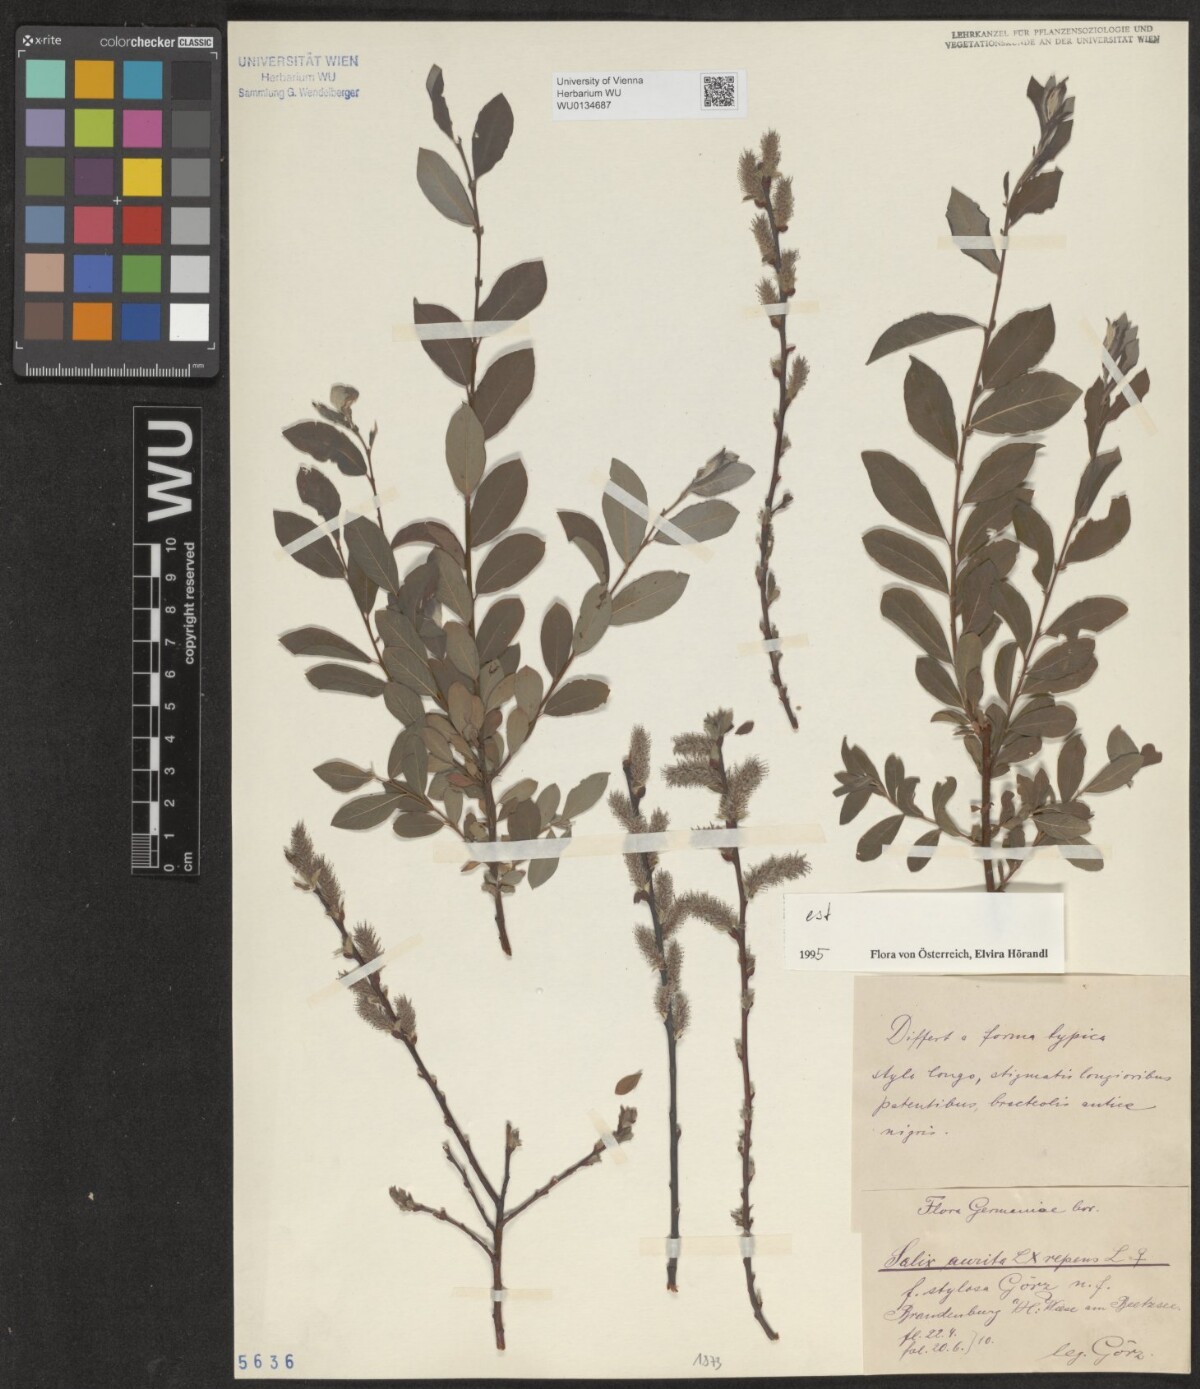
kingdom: Plantae
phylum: Tracheophyta
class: Magnoliopsida
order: Malpighiales
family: Salicaceae
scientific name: Salicaceae
